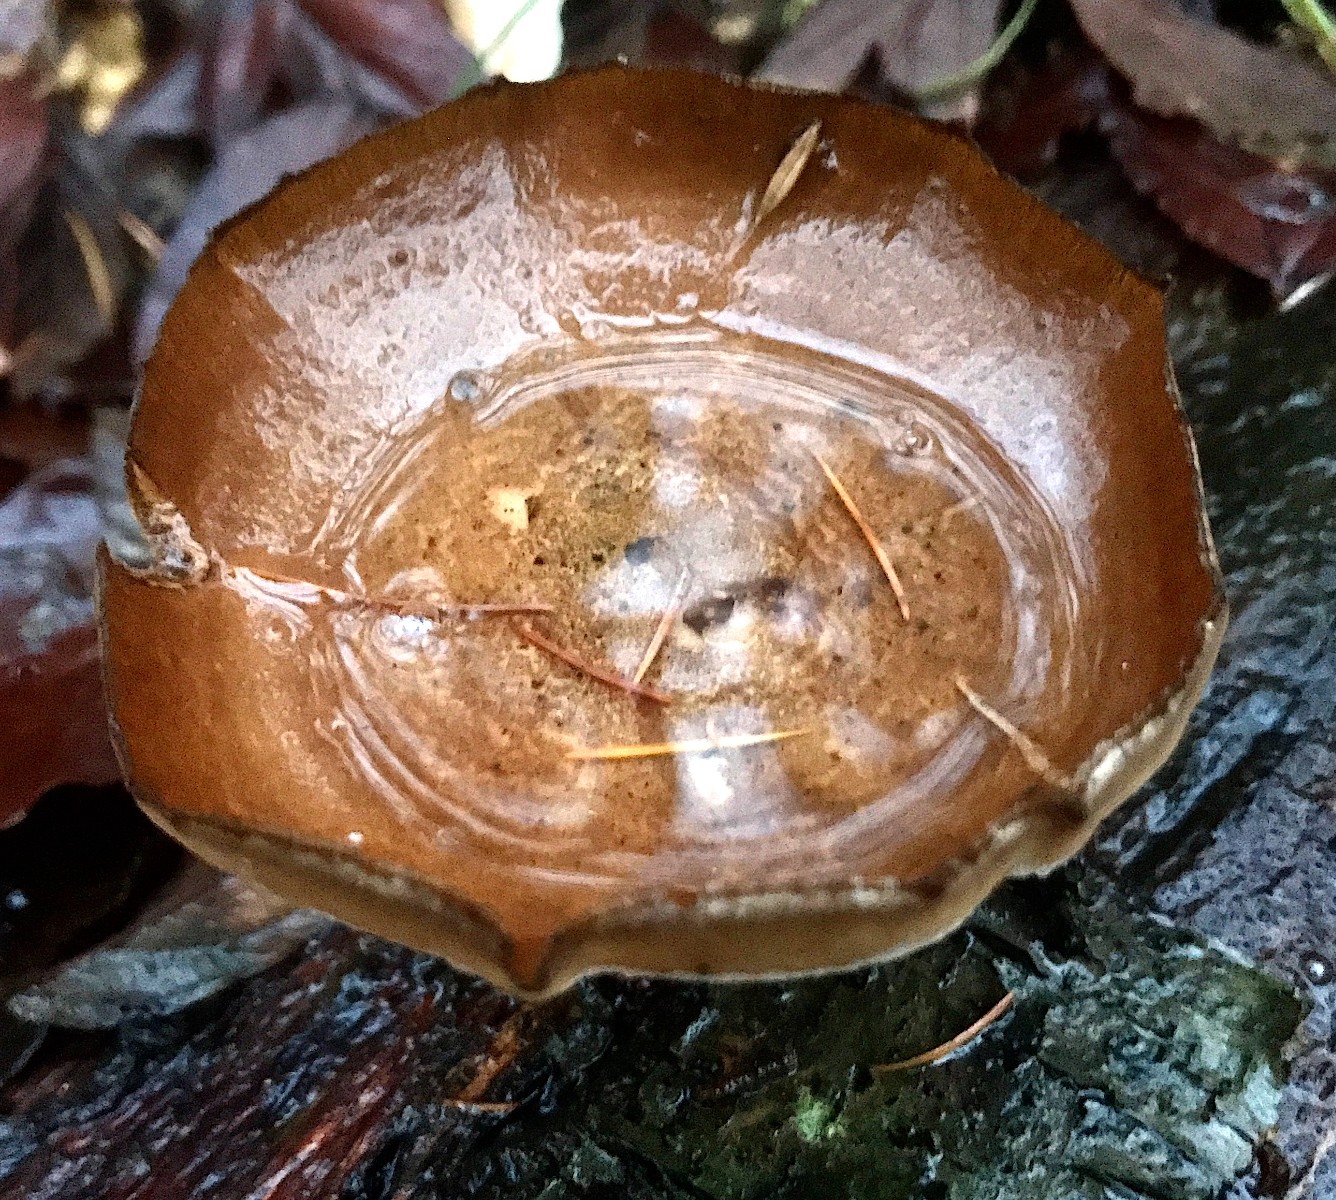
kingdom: Fungi
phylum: Basidiomycota
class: Agaricomycetes
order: Polyporales
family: Polyporaceae
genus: Lentinus
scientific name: Lentinus brumalis
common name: vinter-stilkporesvamp
